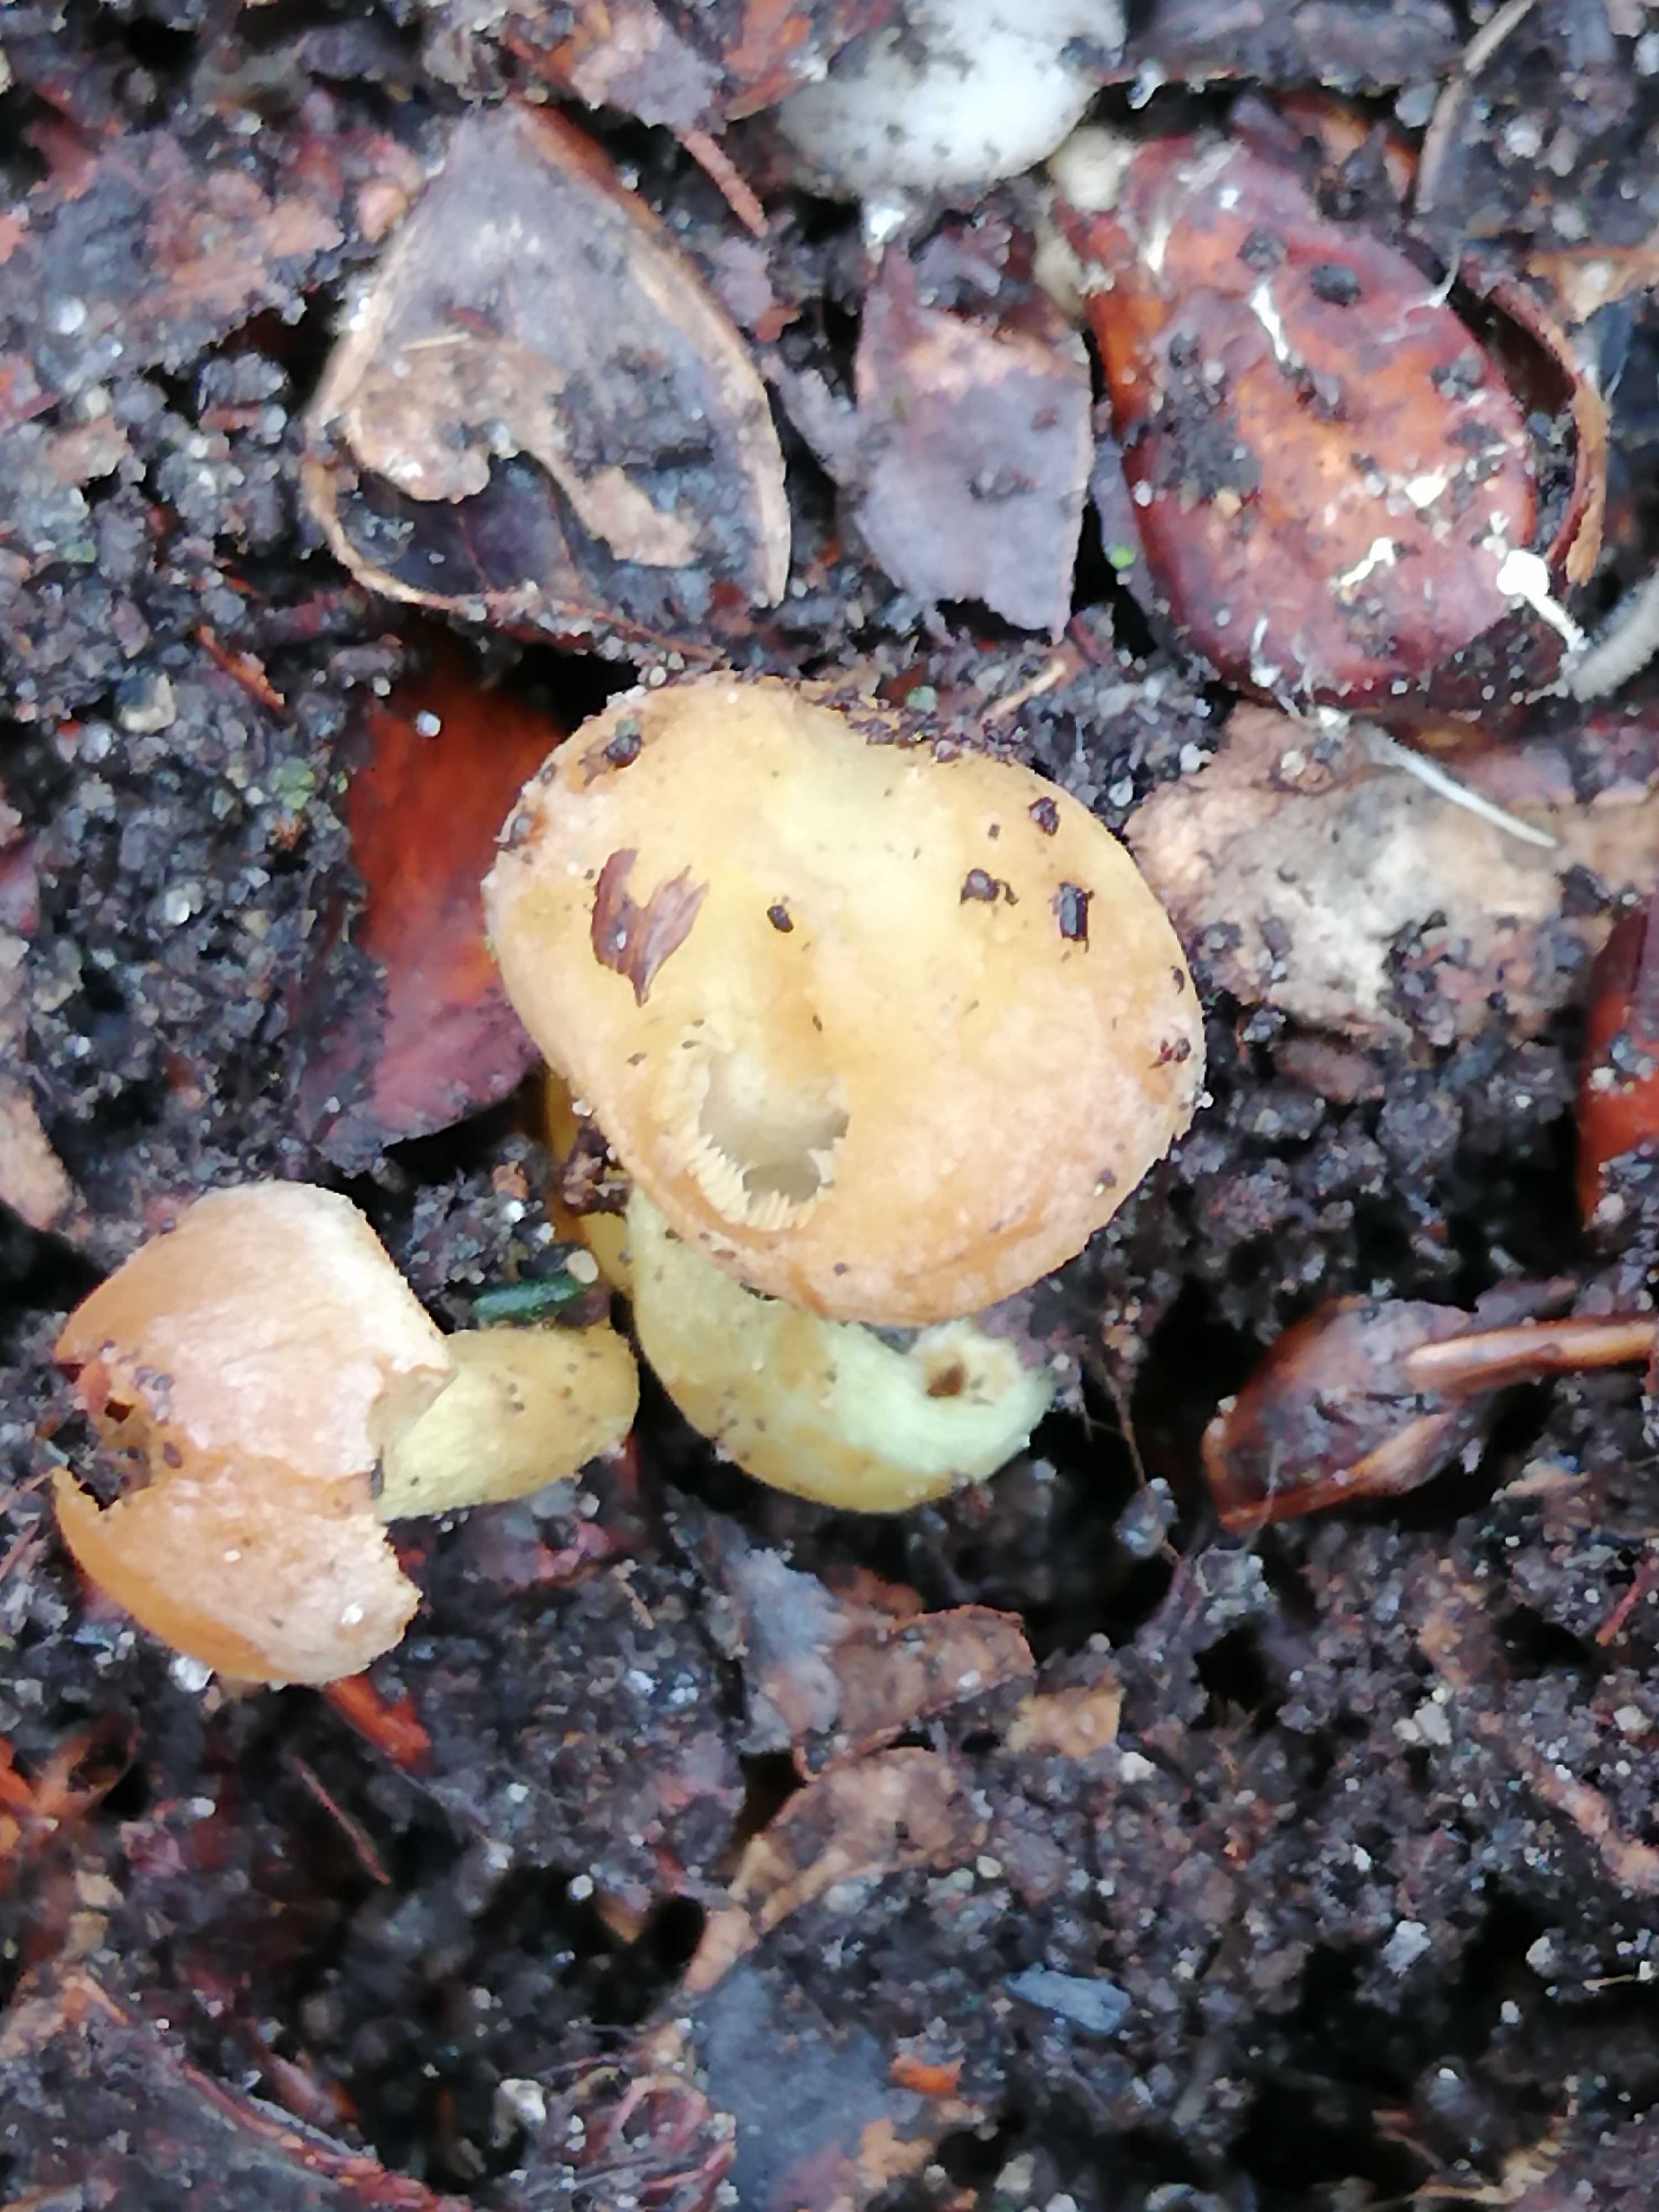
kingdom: Fungi
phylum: Basidiomycota
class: Agaricomycetes
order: Agaricales
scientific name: Agaricales
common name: champignonordenen
